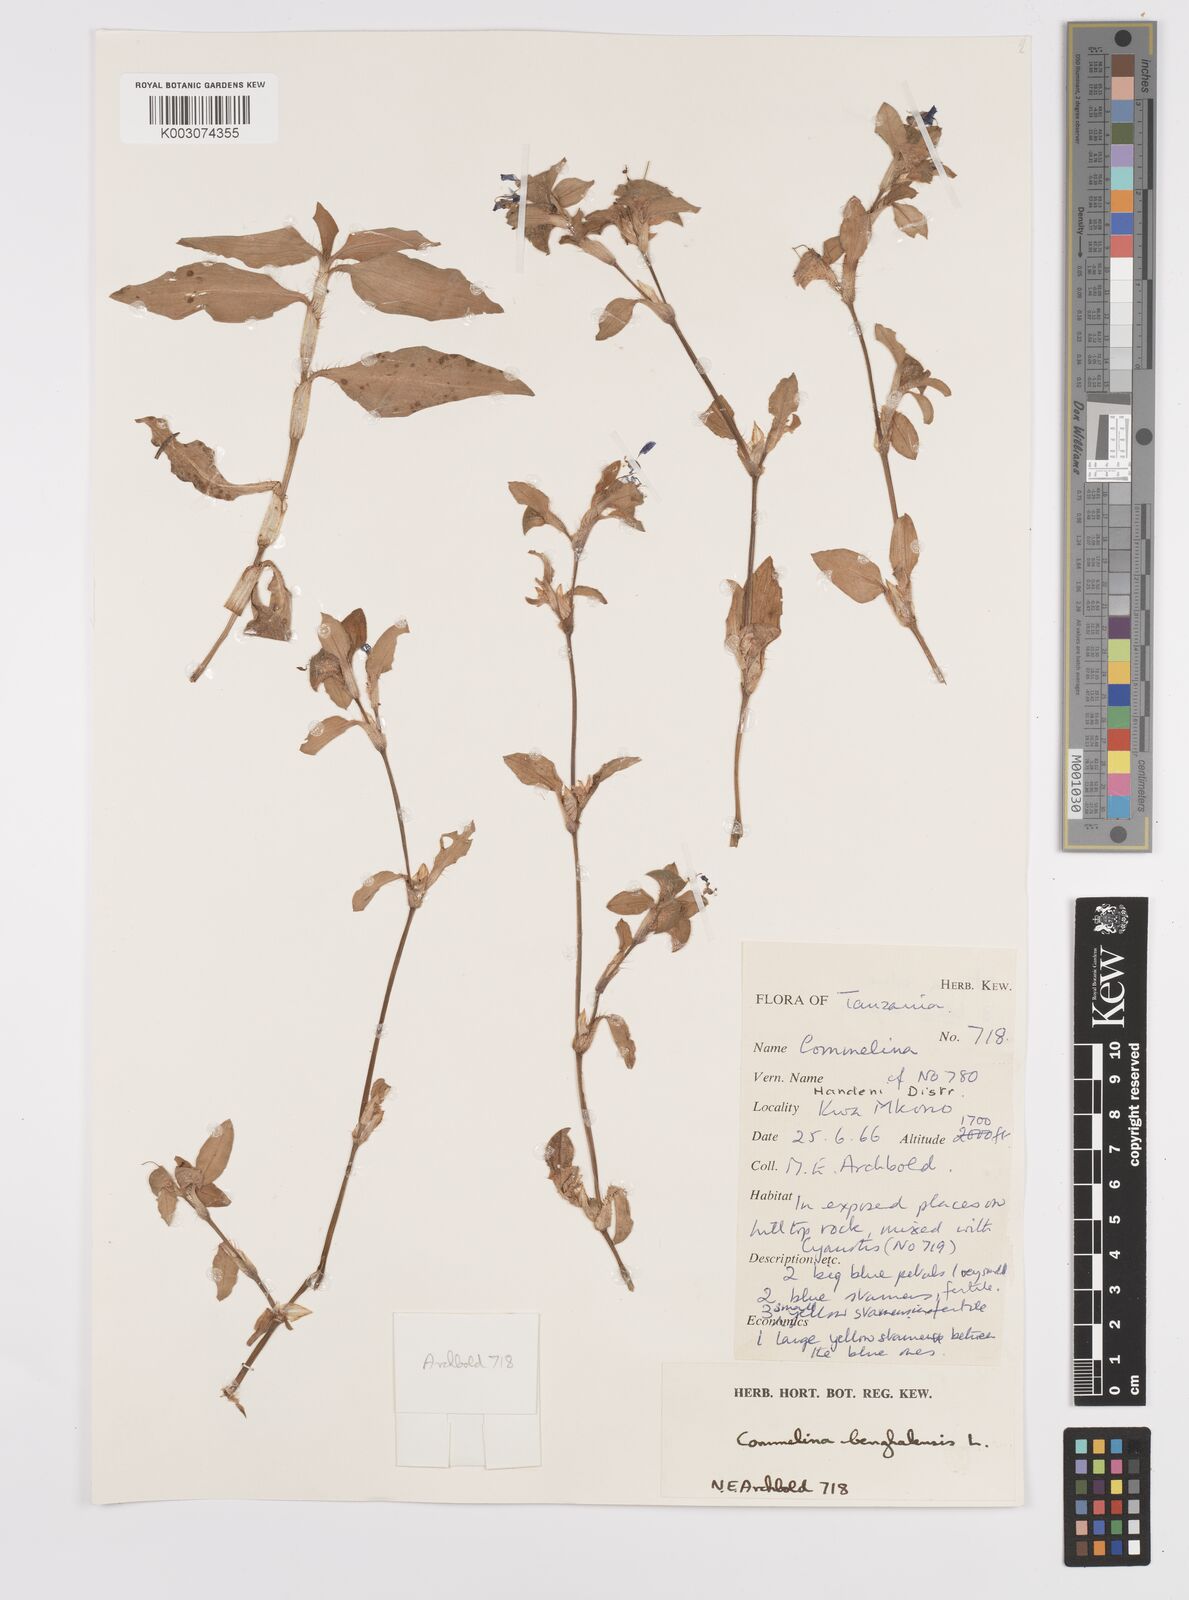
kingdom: Plantae
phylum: Tracheophyta
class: Liliopsida
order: Commelinales
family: Commelinaceae
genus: Commelina
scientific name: Commelina benghalensis
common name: Jio
